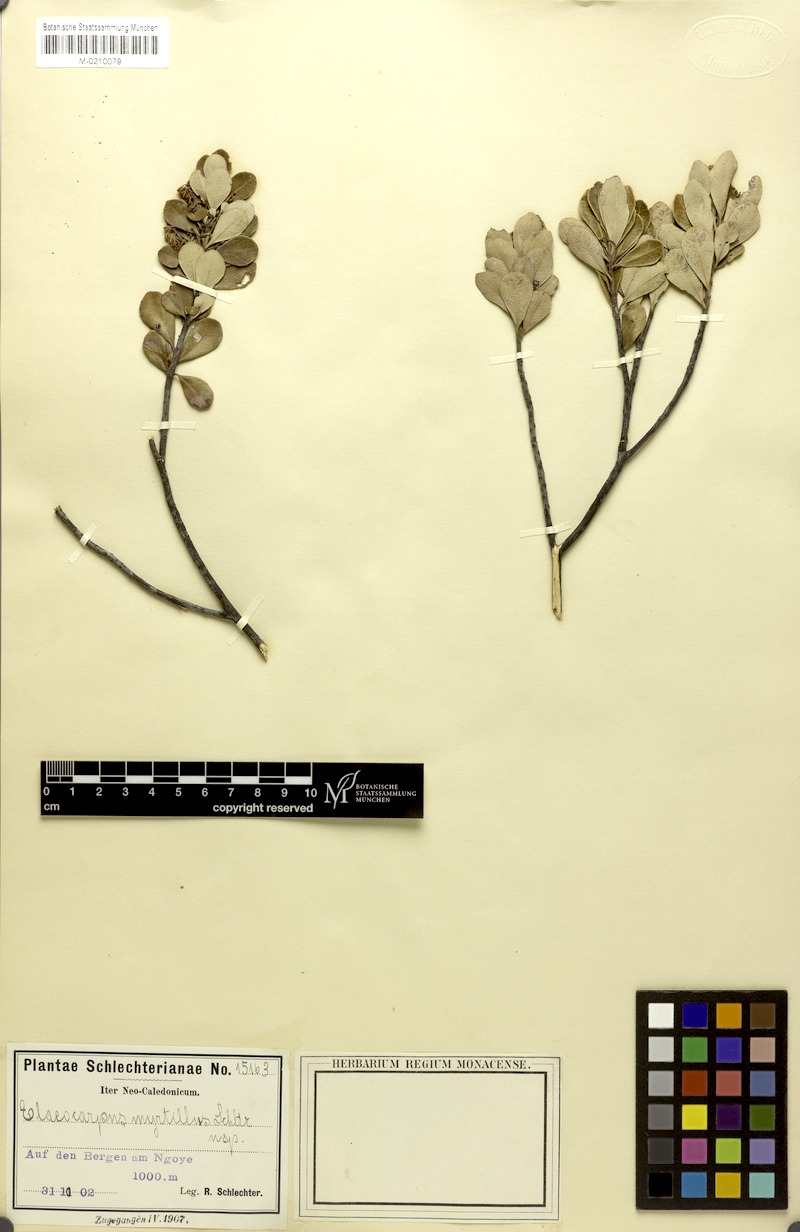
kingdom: Plantae
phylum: Tracheophyta
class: Magnoliopsida
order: Oxalidales
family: Elaeocarpaceae
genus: Elaeocarpus
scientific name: Elaeocarpus vaccinioides
